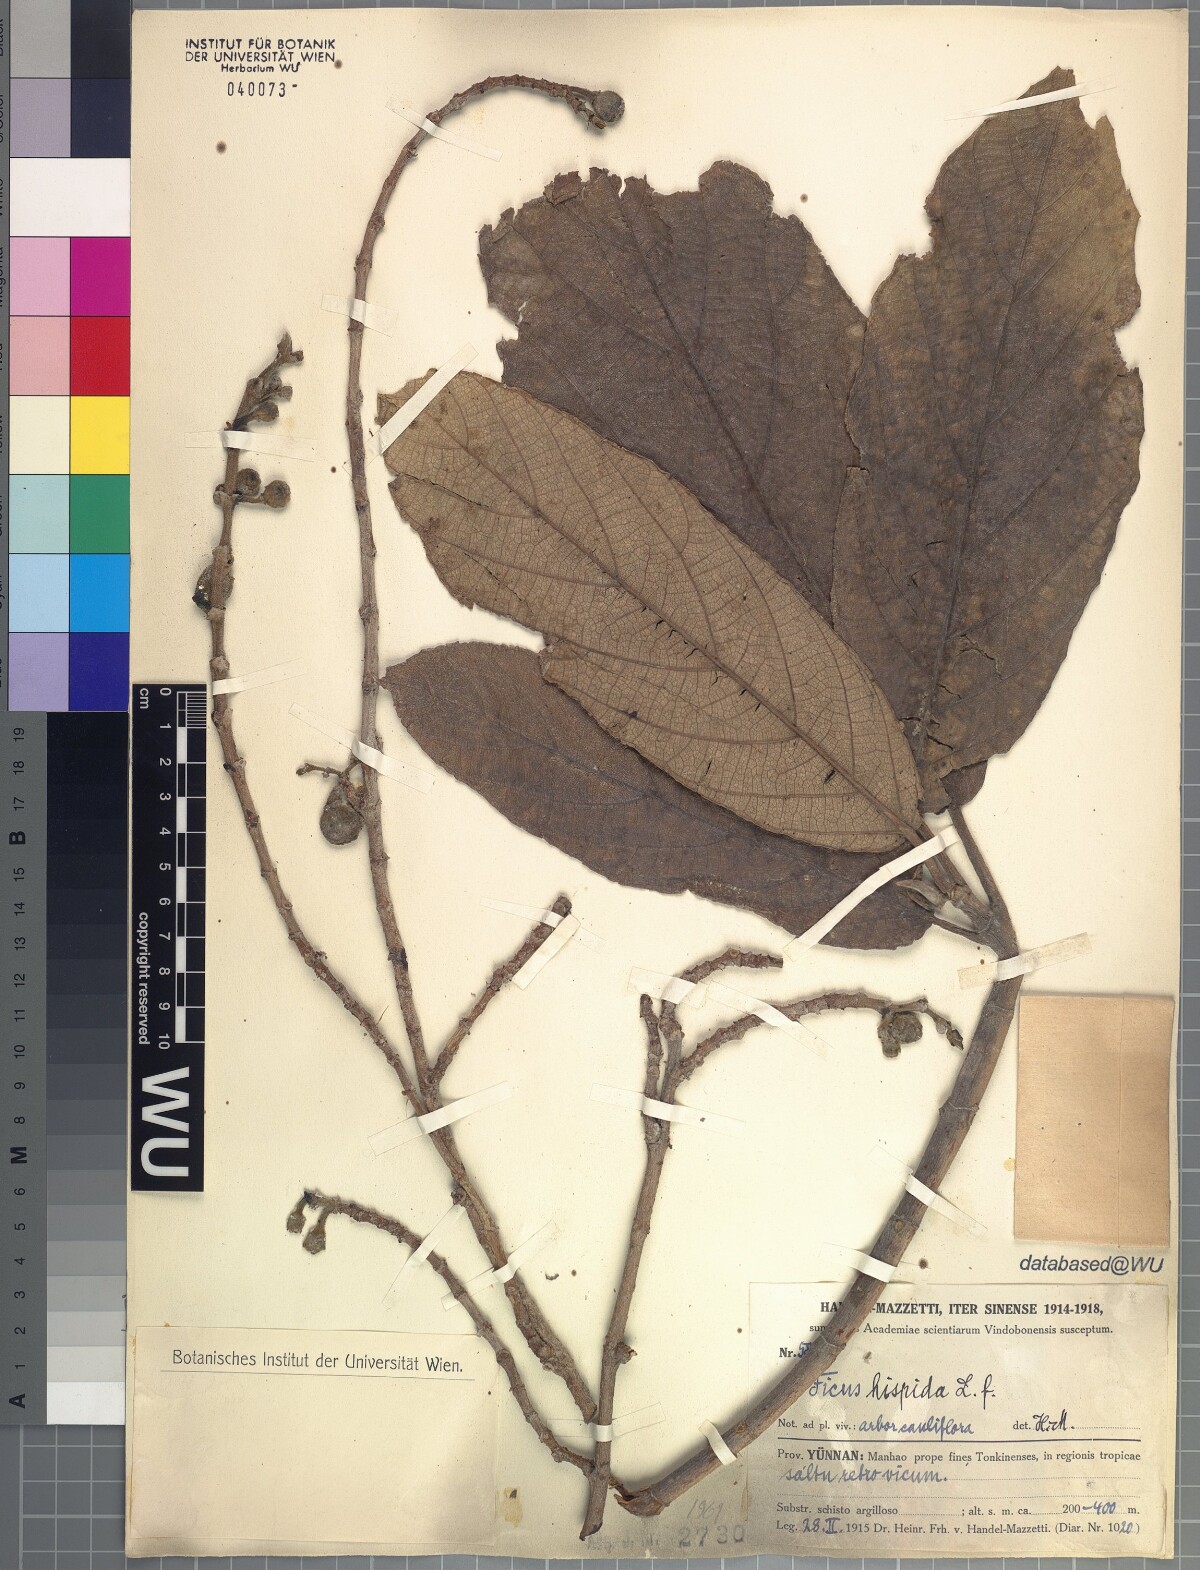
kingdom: Plantae
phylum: Tracheophyta
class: Magnoliopsida
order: Rosales
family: Moraceae
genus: Ficus
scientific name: Ficus hispida
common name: Hairy fig
